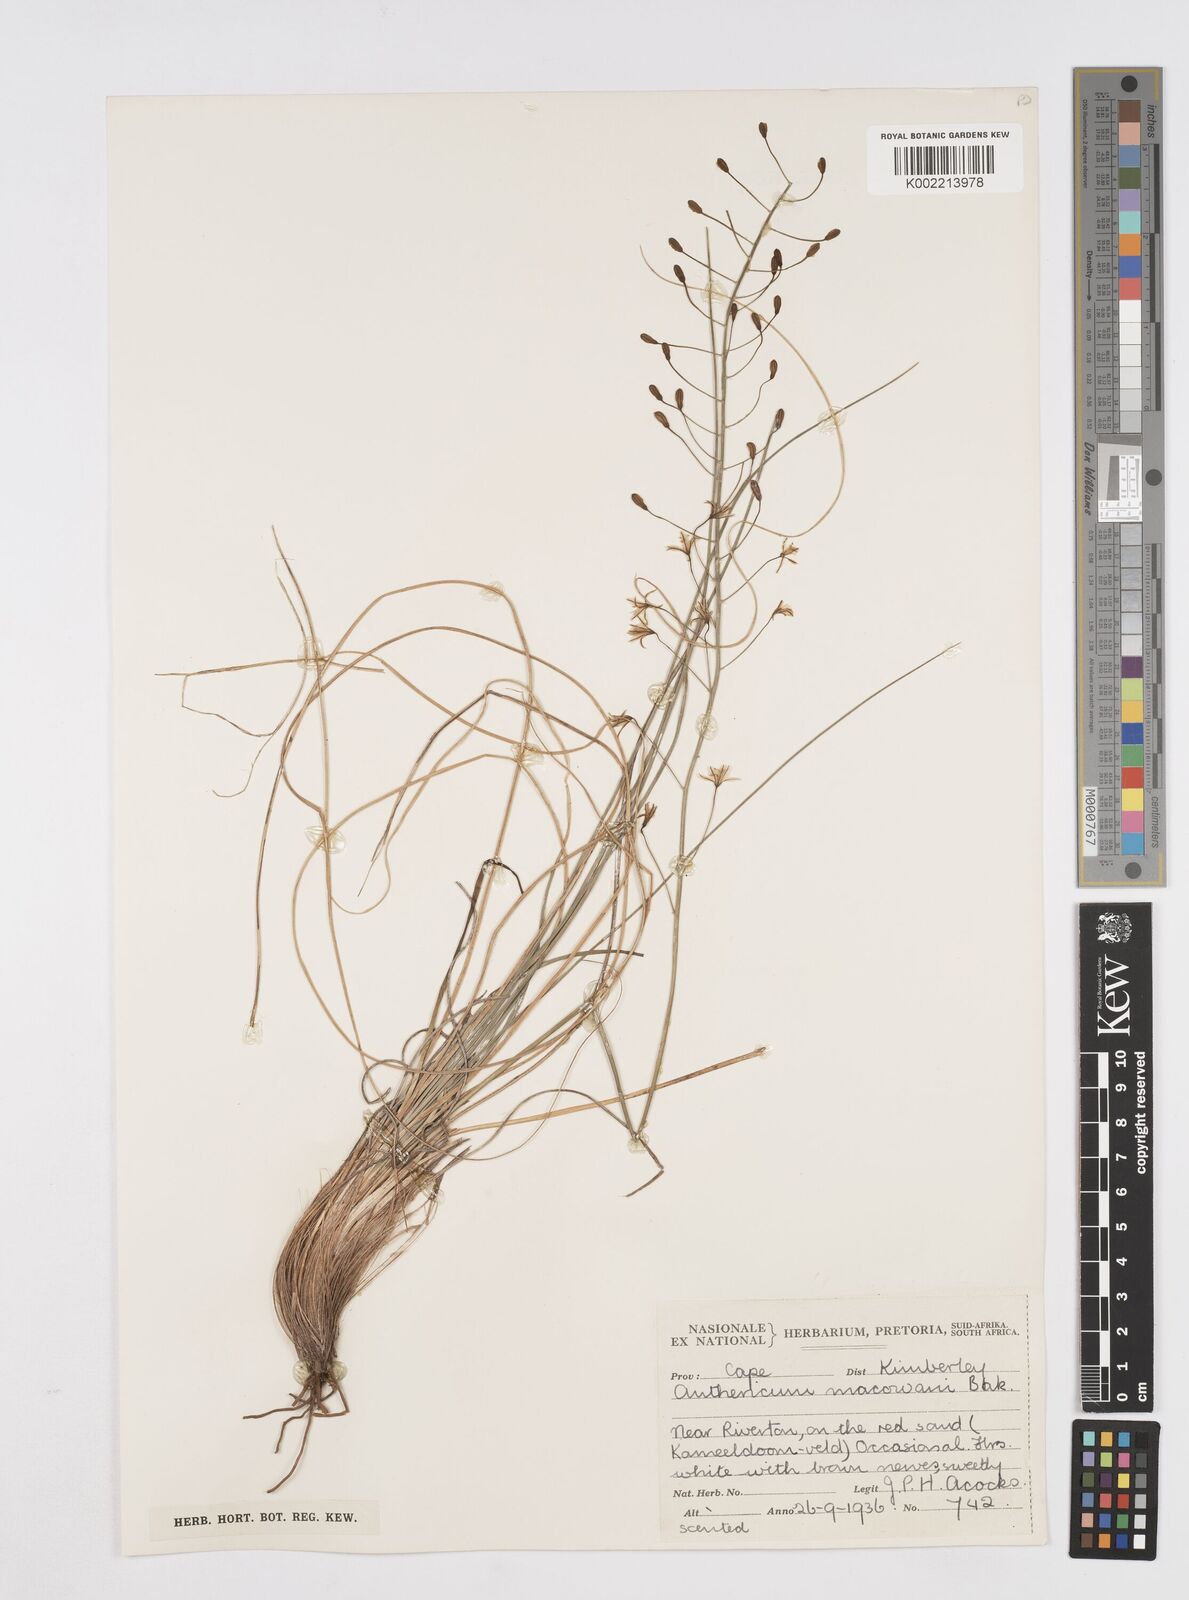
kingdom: Plantae
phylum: Tracheophyta
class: Liliopsida
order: Asparagales
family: Asphodelaceae
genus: Trachyandra
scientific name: Trachyandra asperata
